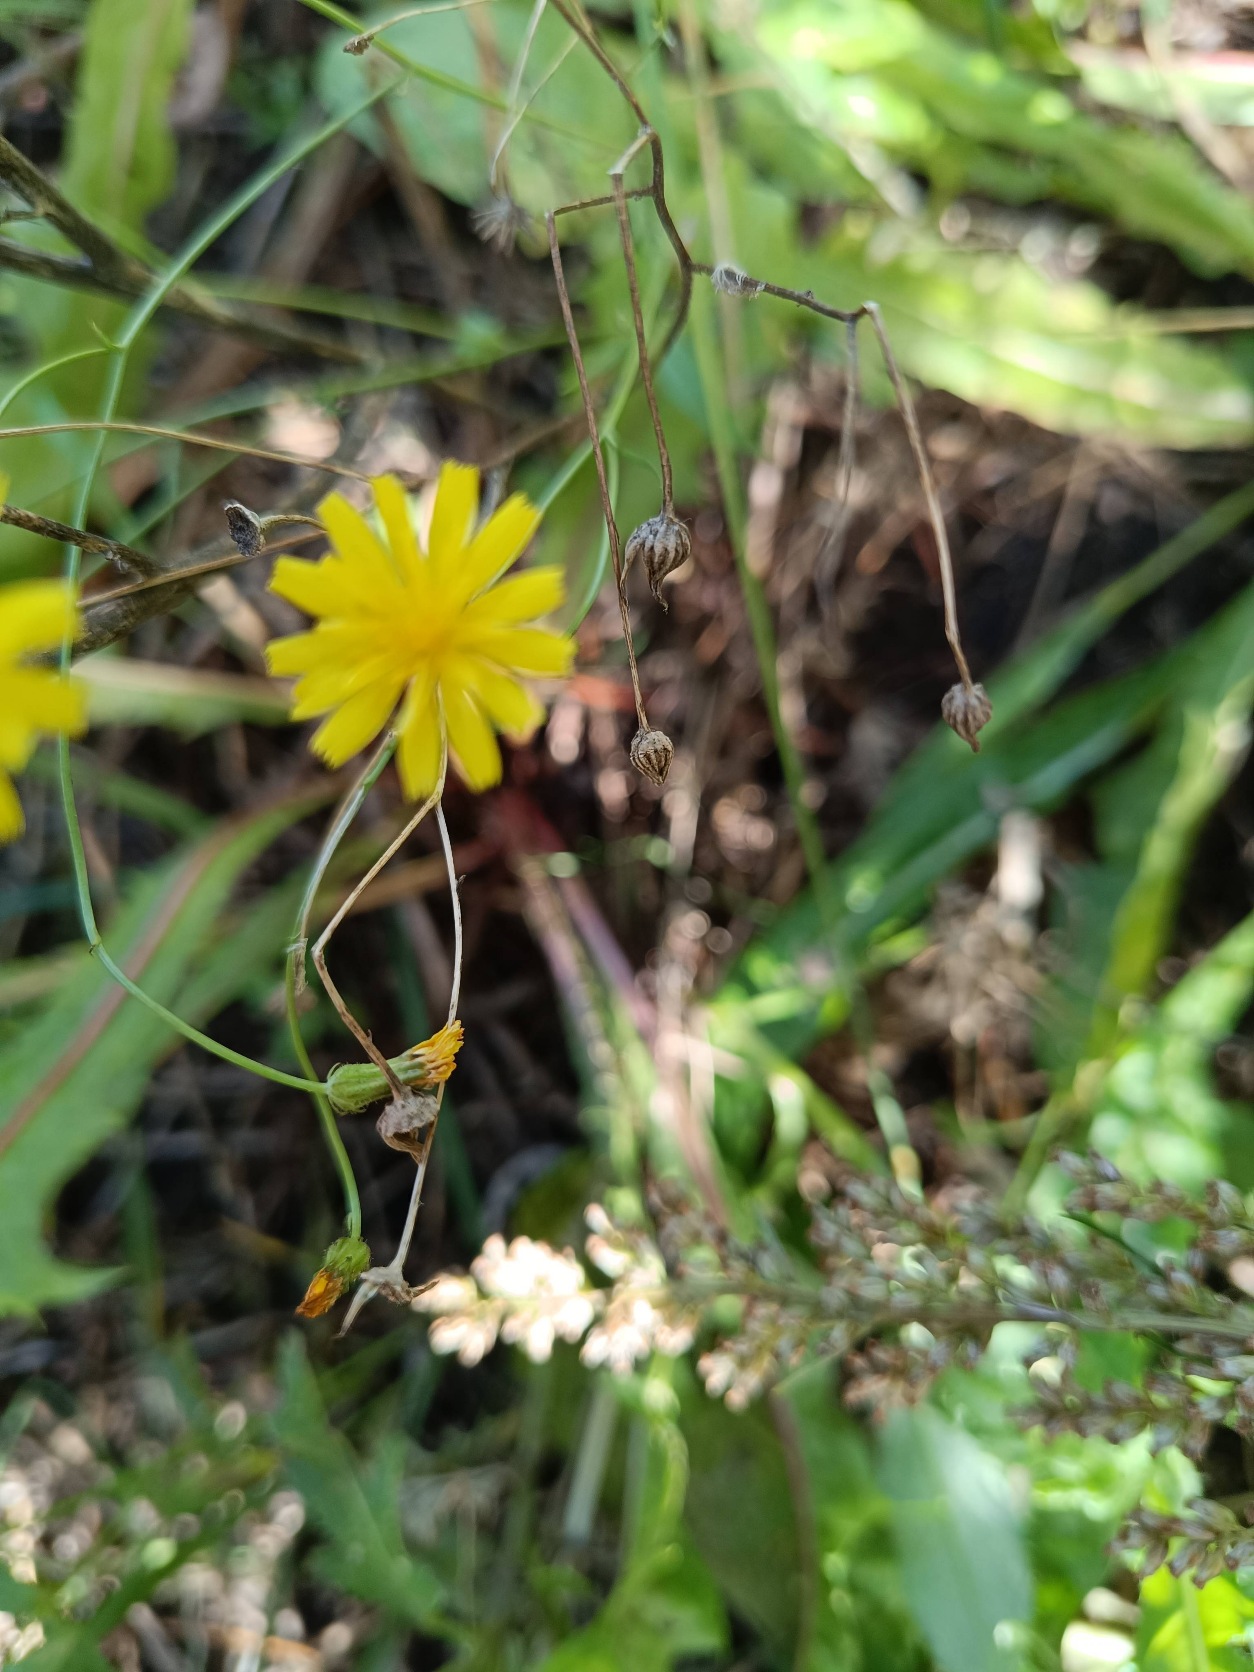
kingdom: Plantae
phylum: Tracheophyta
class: Magnoliopsida
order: Asterales
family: Asteraceae
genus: Crepis
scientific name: Crepis capillaris
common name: Grøn høgeskæg
